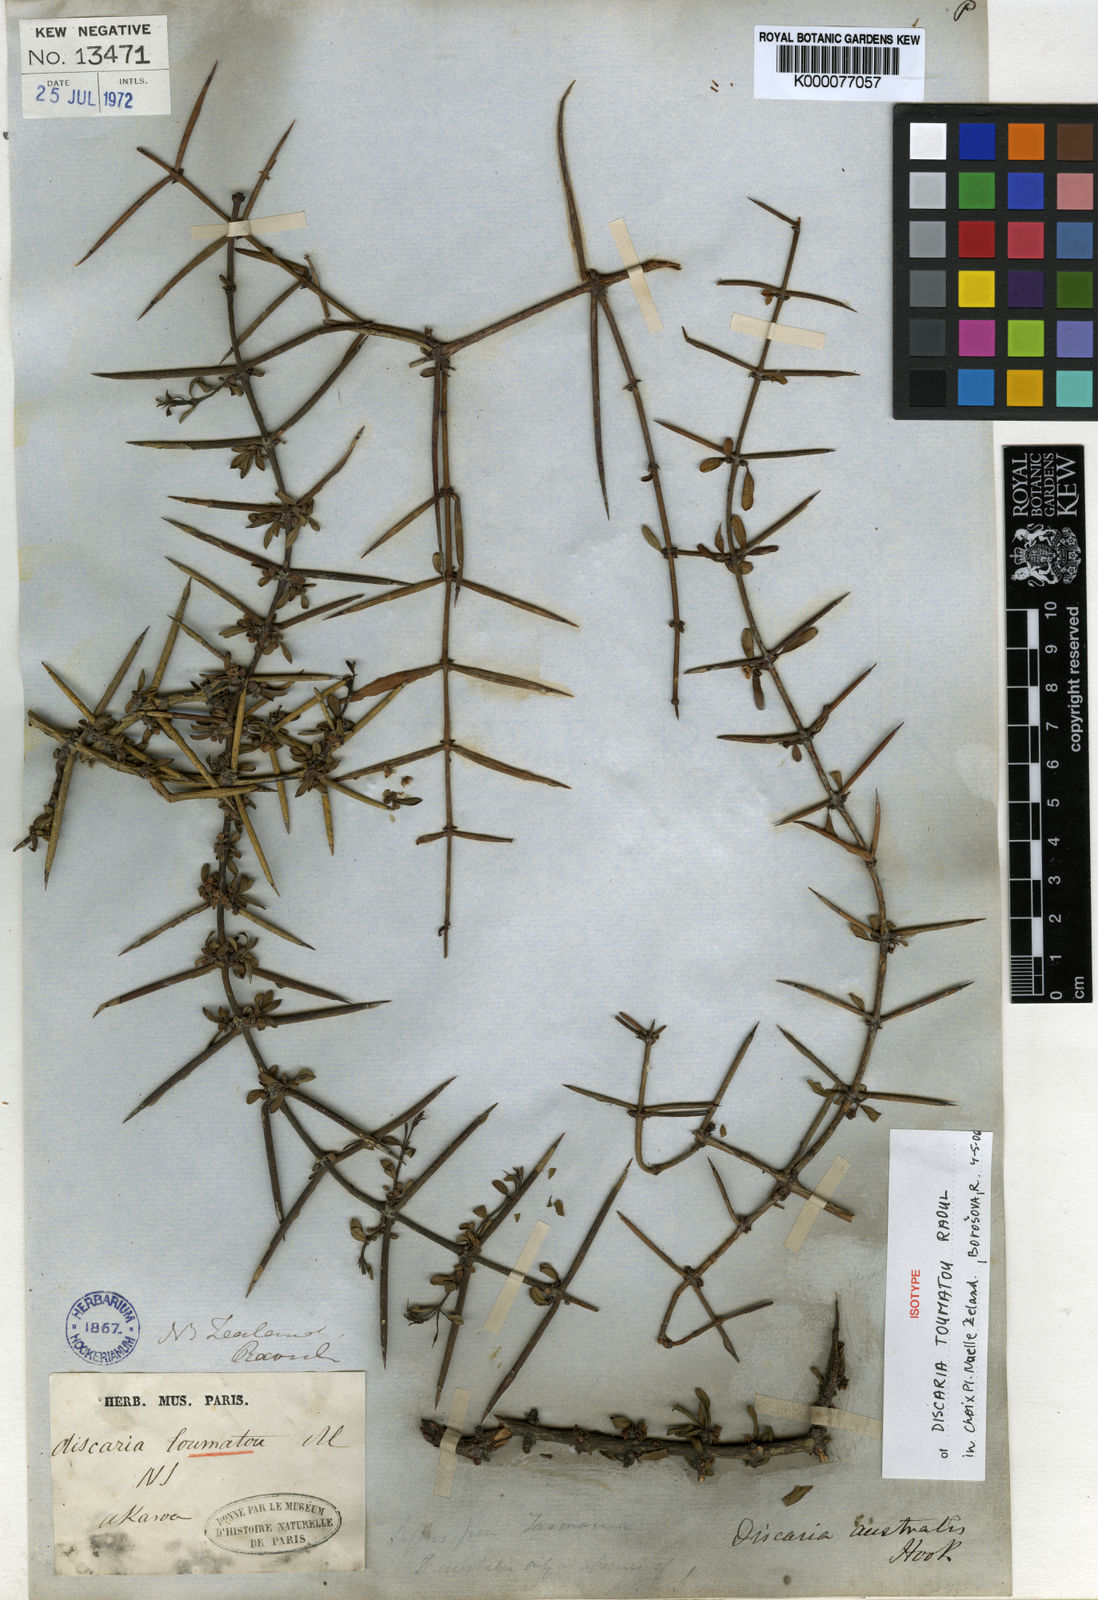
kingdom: Plantae
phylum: Tracheophyta
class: Magnoliopsida
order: Rosales
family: Rhamnaceae
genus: Discaria
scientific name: Discaria toumatou
